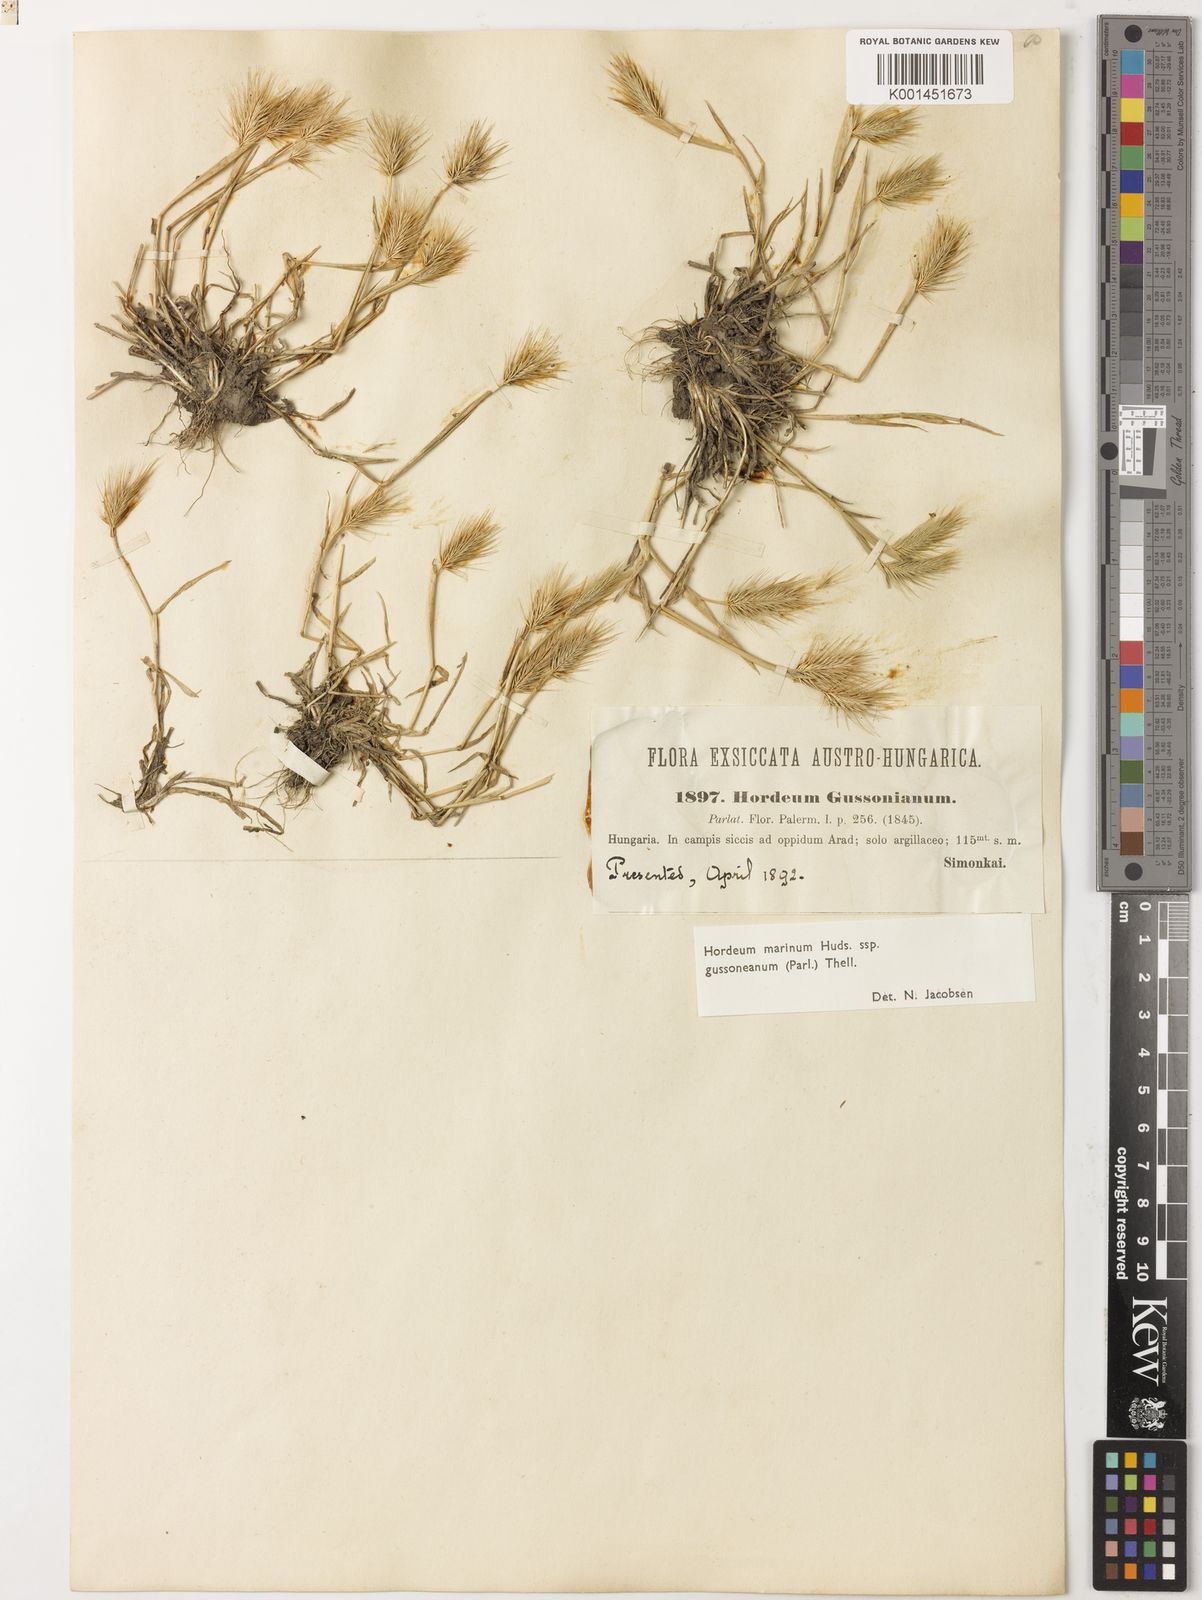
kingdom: Plantae
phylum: Tracheophyta
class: Liliopsida
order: Poales
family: Poaceae
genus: Hordeum
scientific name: Hordeum marinum
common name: Sea barley
